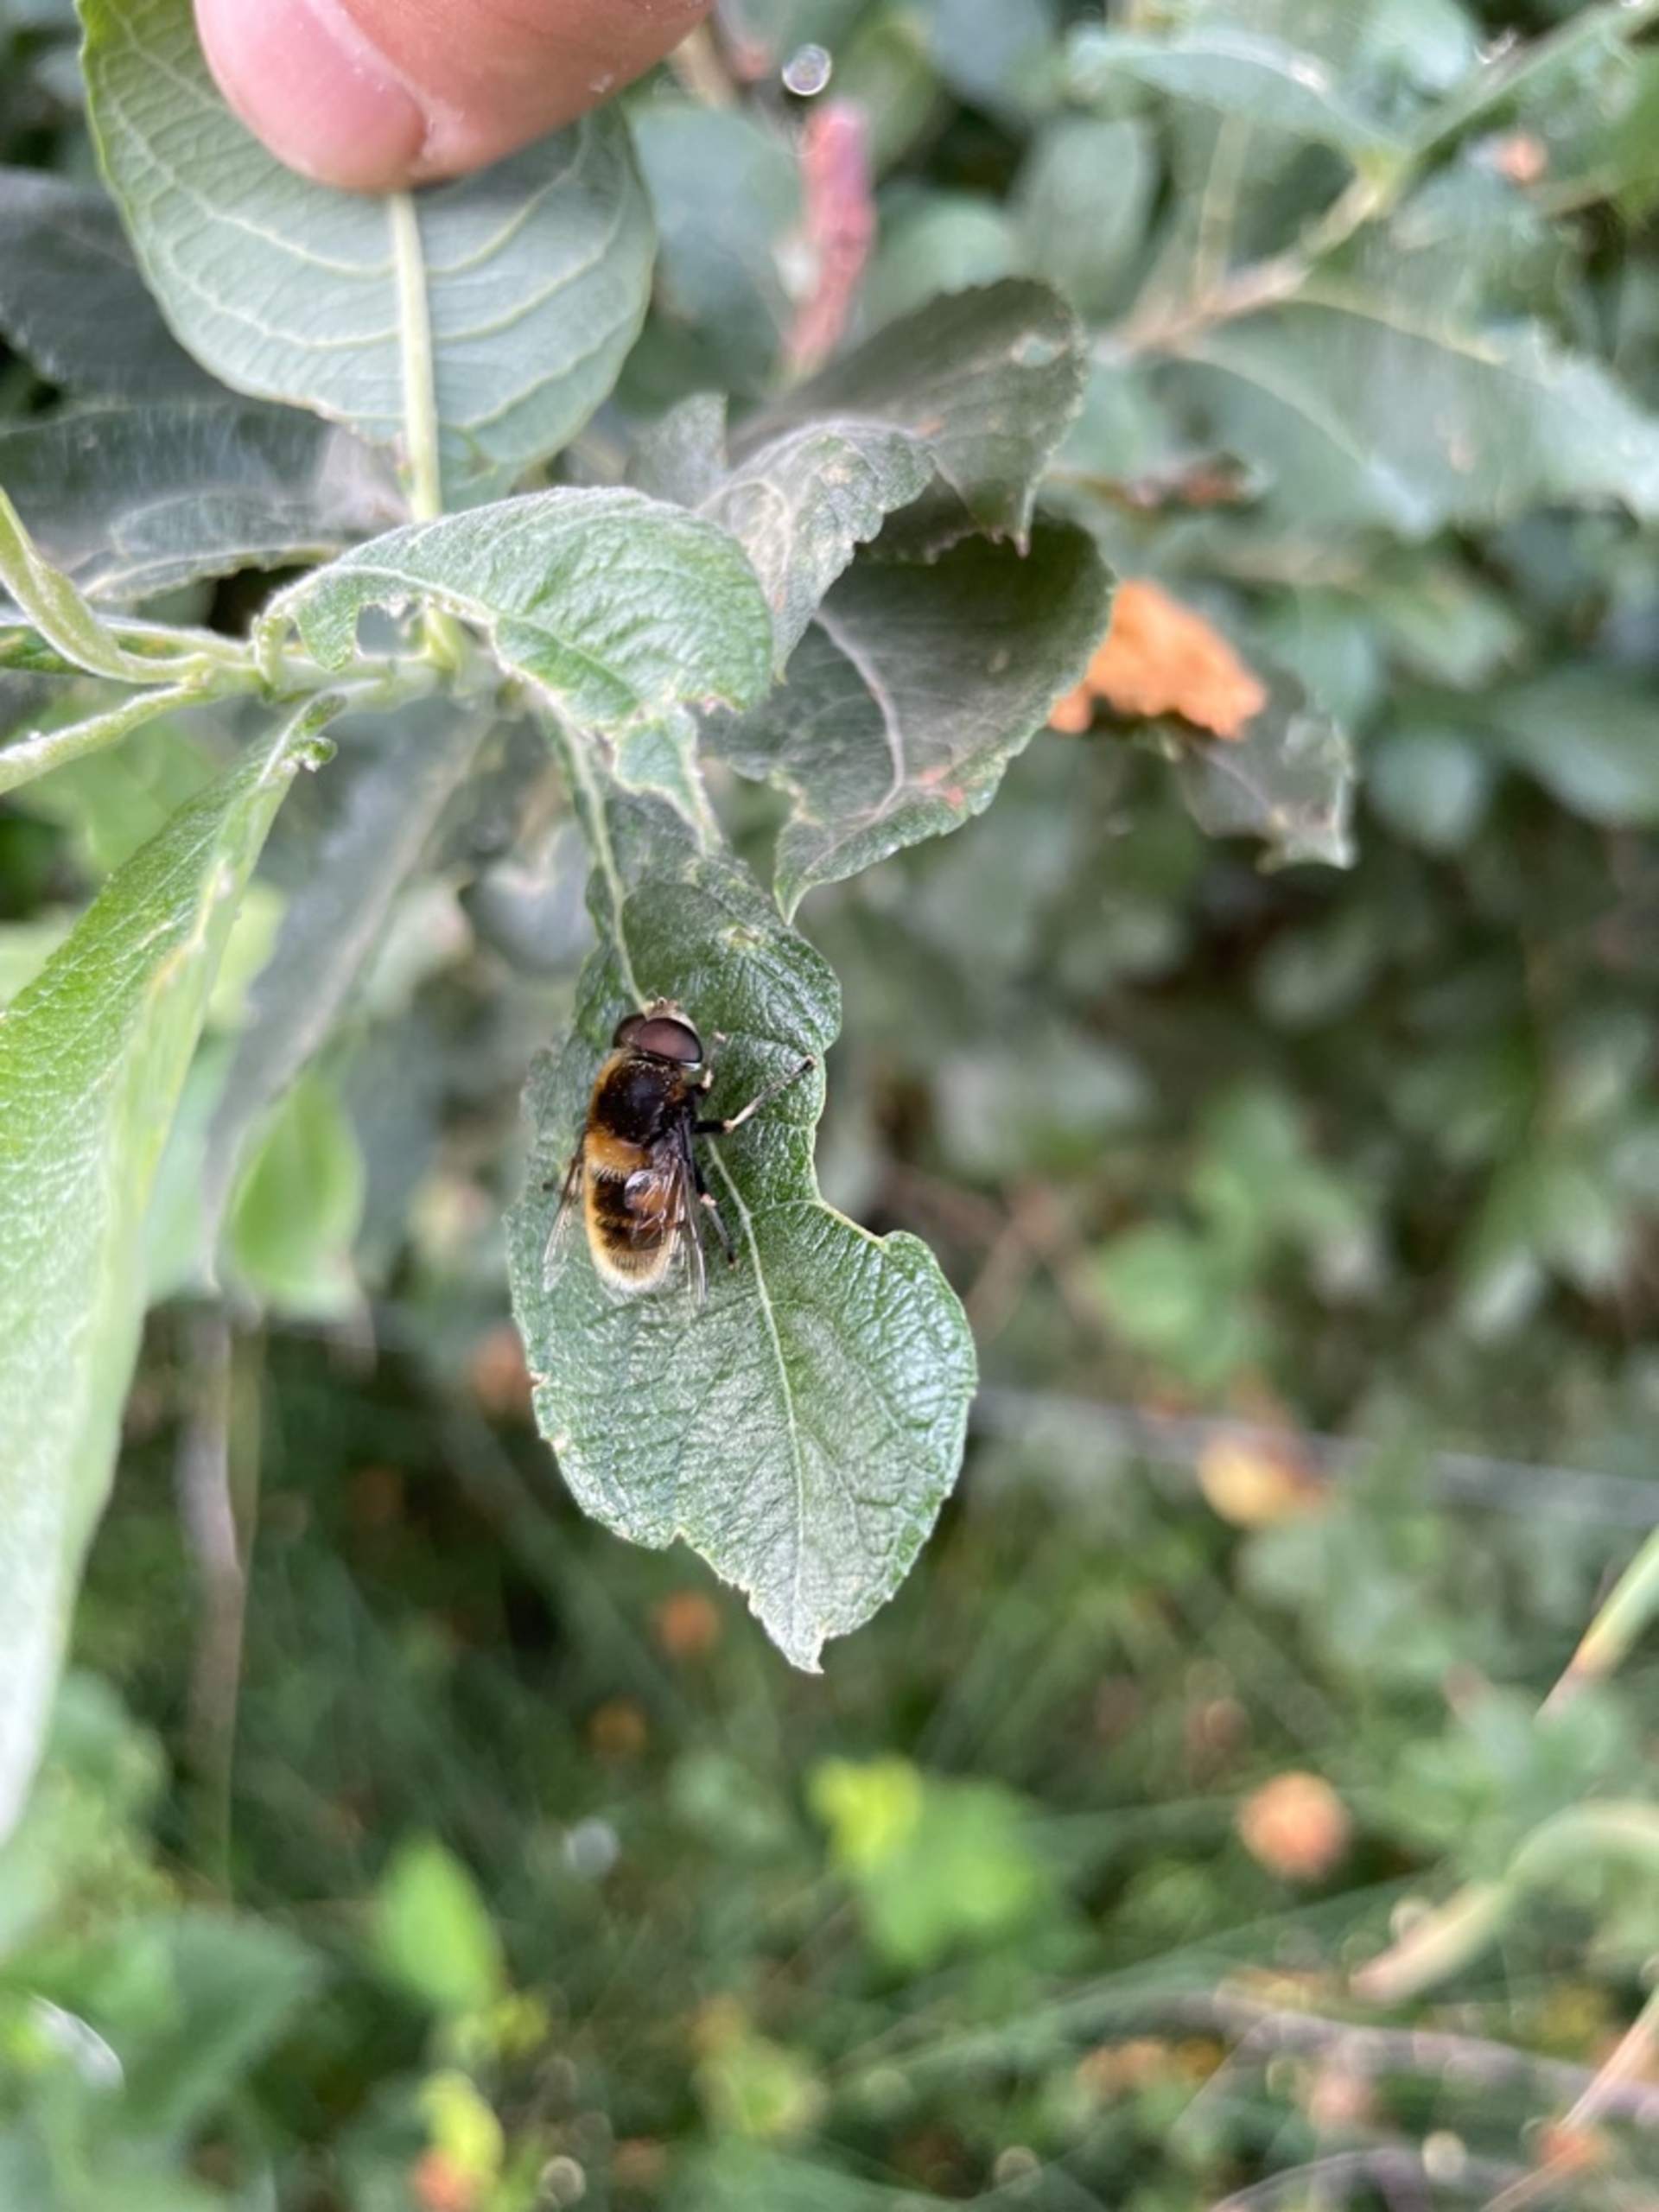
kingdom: Animalia
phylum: Arthropoda
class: Insecta
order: Diptera
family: Syrphidae
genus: Eristalis
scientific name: Eristalis intricaria
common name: Håret dyndflue
